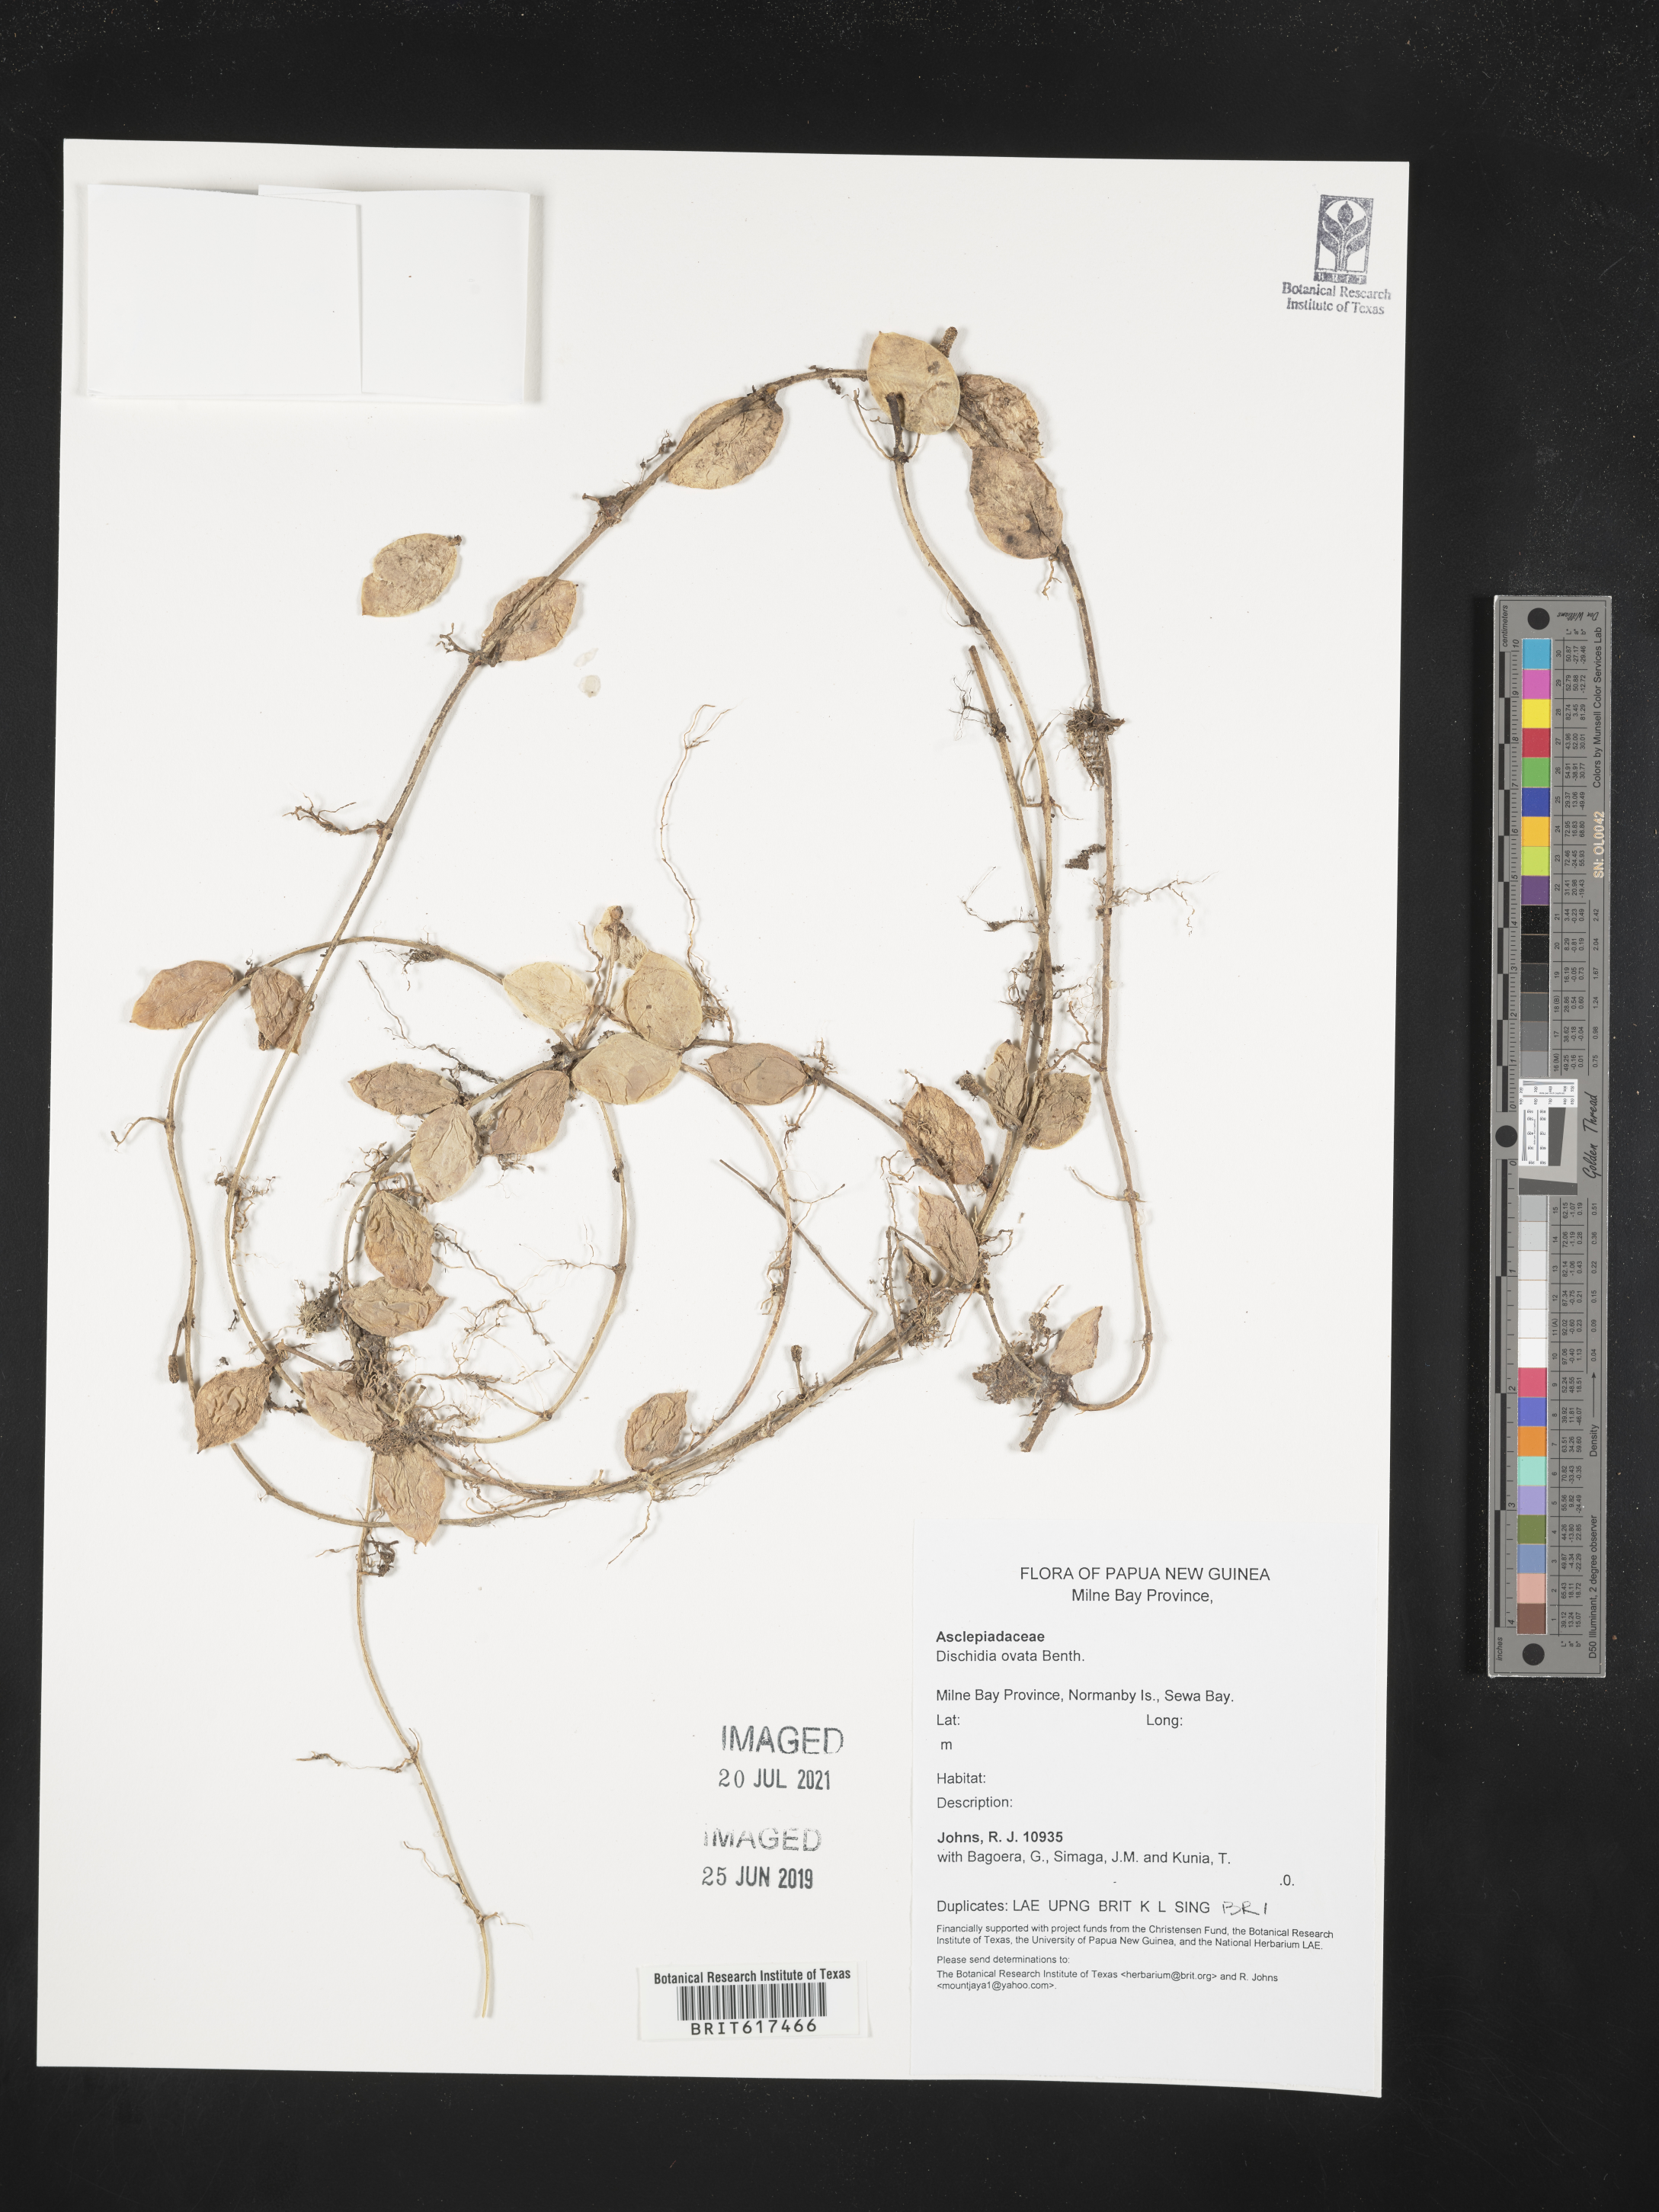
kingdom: Plantae
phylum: Tracheophyta
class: Magnoliopsida
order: Gentianales
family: Apocynaceae
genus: Dischidia
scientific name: Dischidia ovata
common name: Watermelon dischidia
